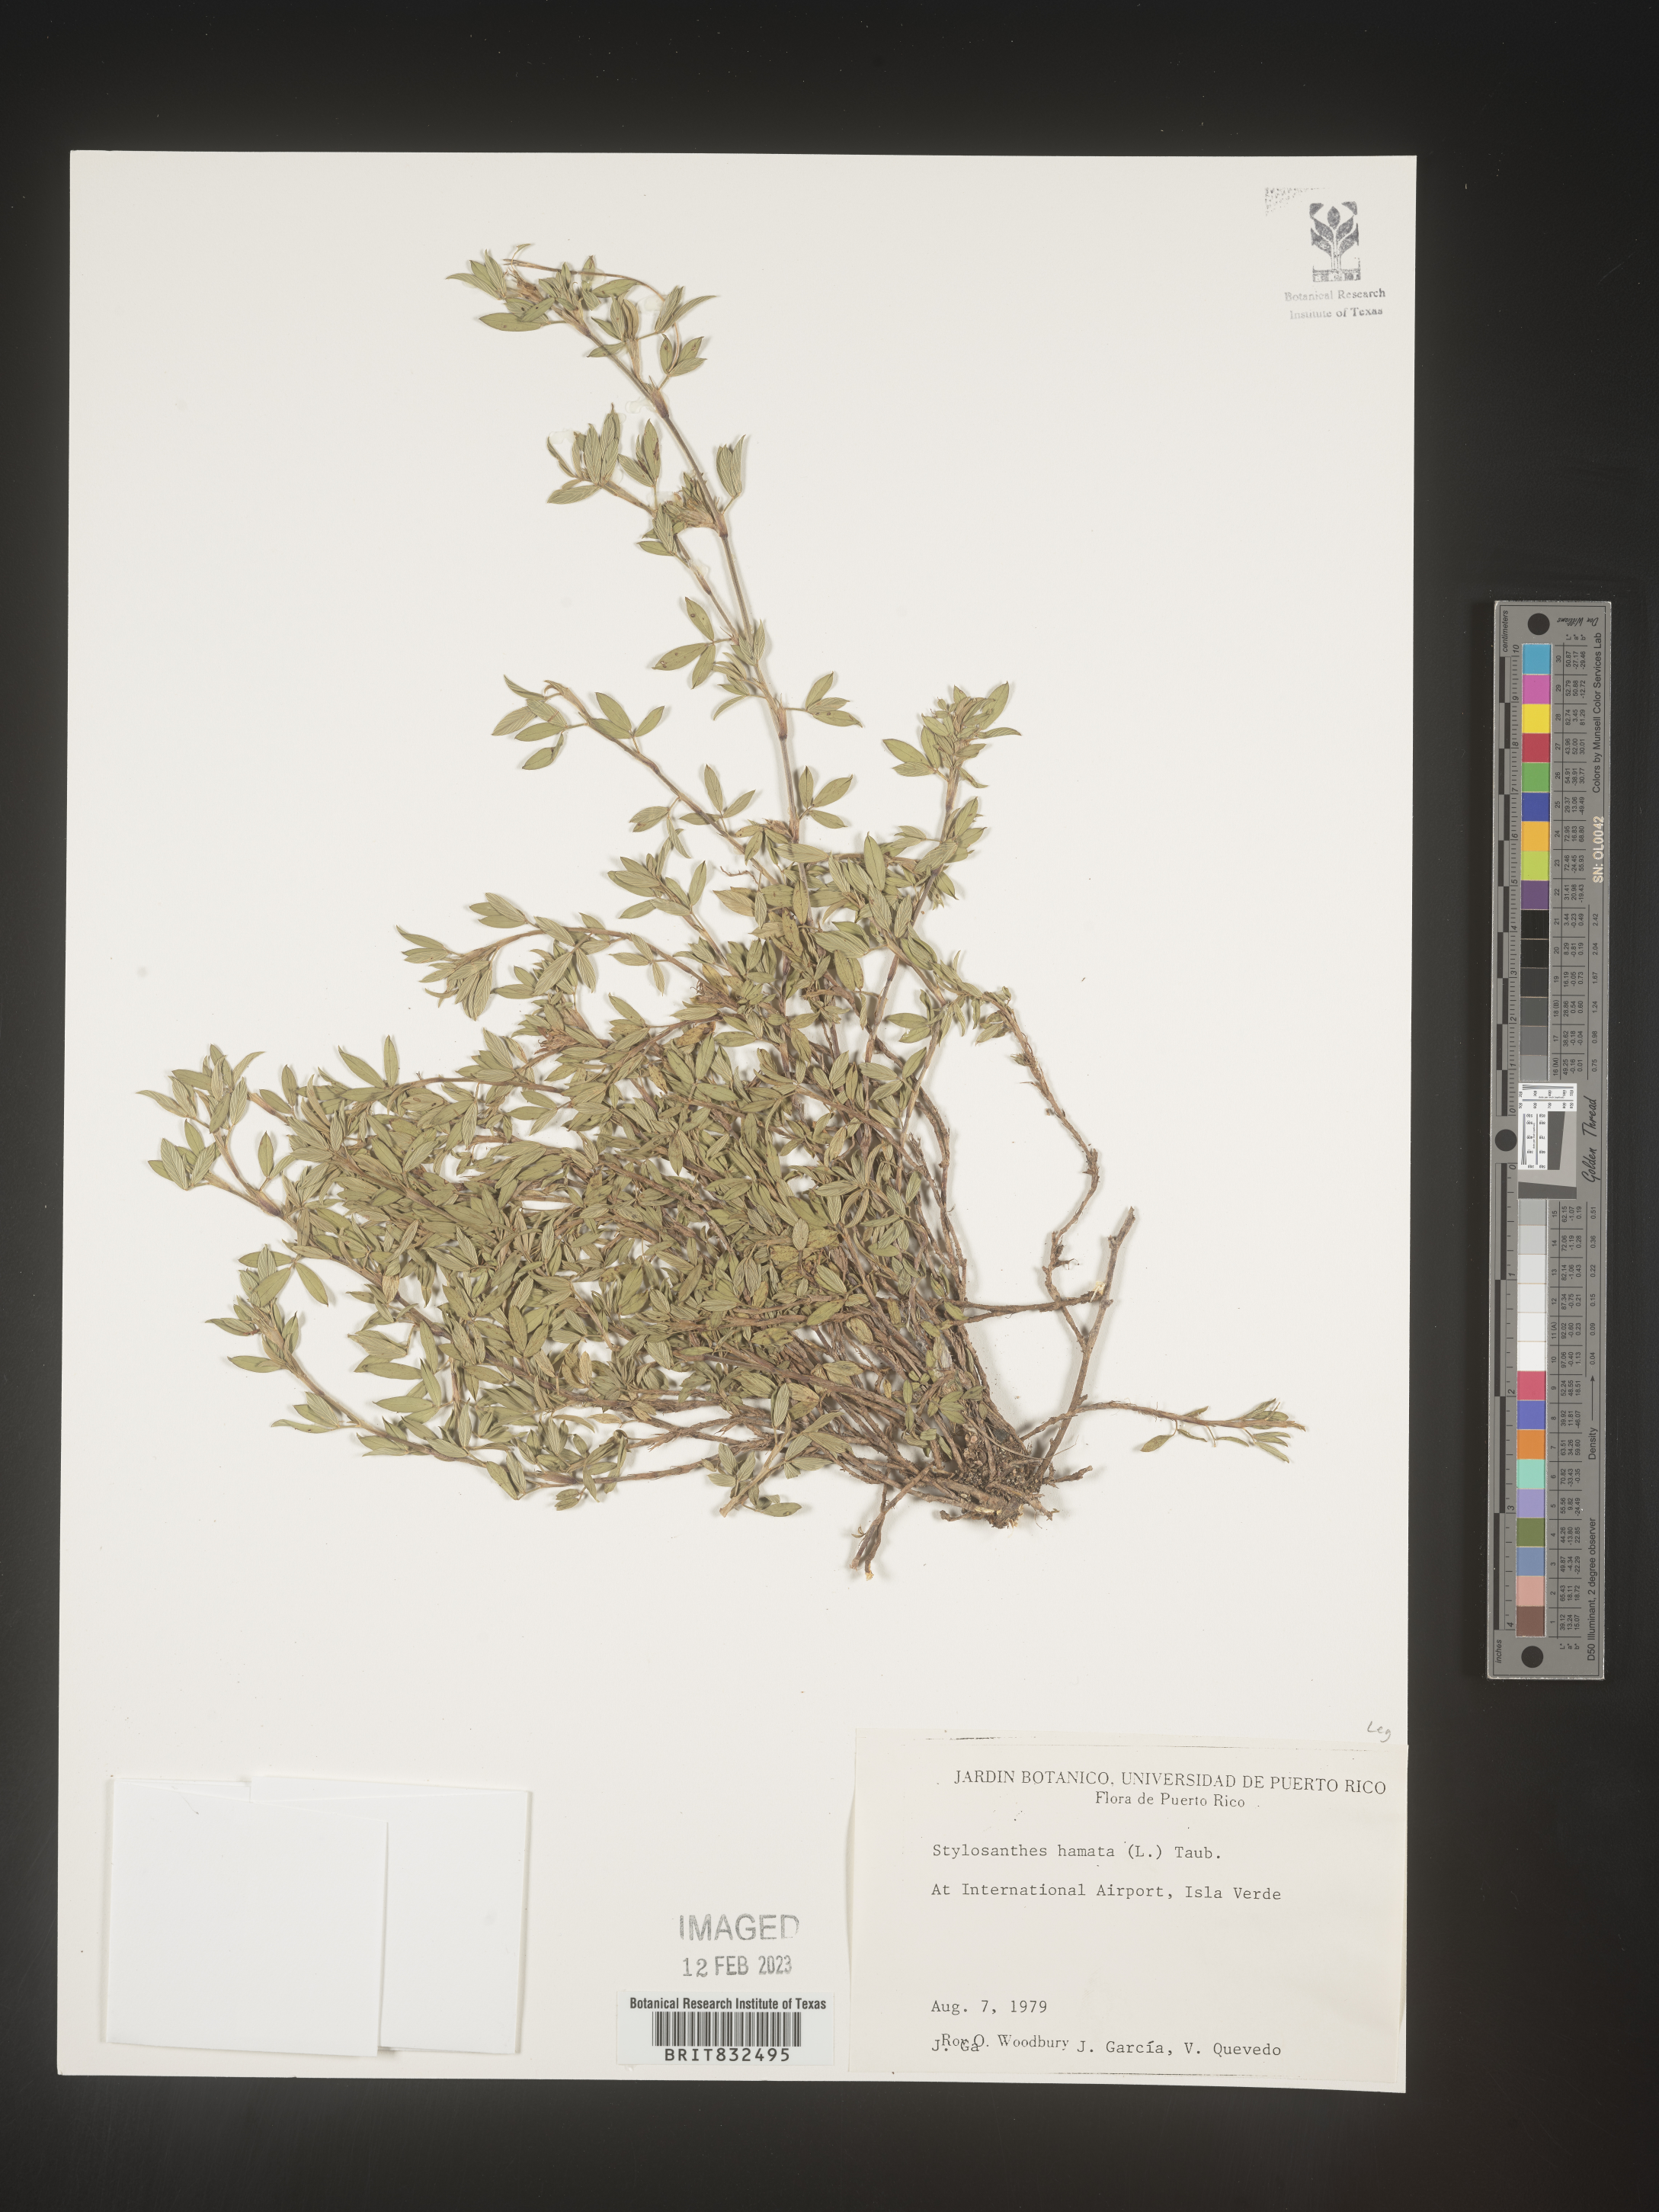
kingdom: Plantae
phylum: Tracheophyta
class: Magnoliopsida
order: Fabales
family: Fabaceae
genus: Stylosanthes
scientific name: Stylosanthes
